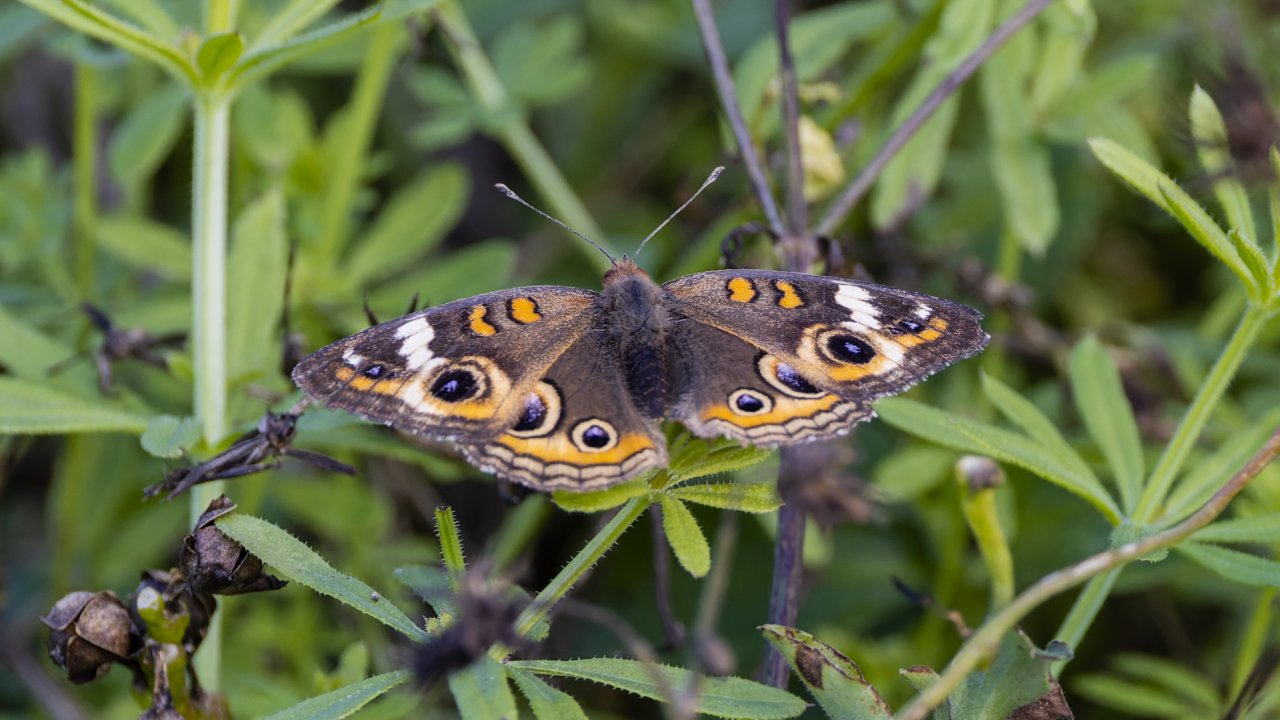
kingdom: Animalia
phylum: Arthropoda
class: Insecta
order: Lepidoptera
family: Nymphalidae
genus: Junonia
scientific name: Junonia coenia
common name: Common Buckeye
